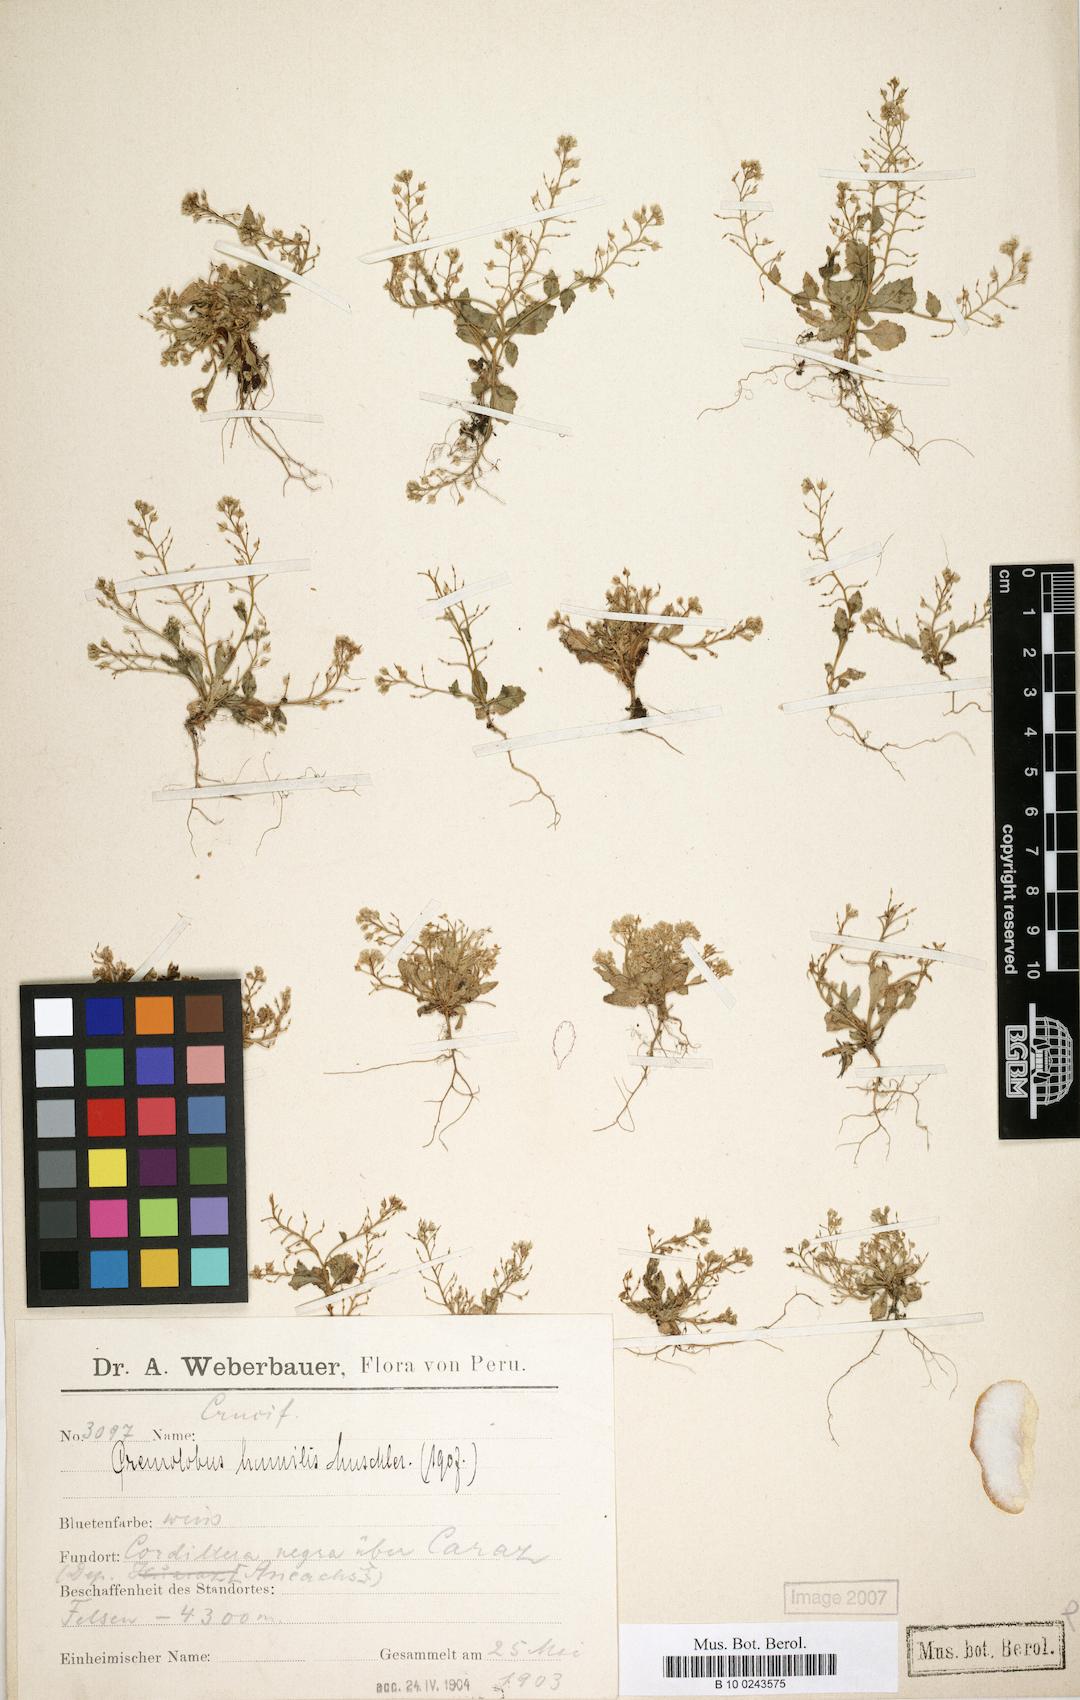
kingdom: Plantae
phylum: Tracheophyta
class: Magnoliopsida
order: Brassicales
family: Brassicaceae
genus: Cremolobus
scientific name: Cremolobus chilensis
